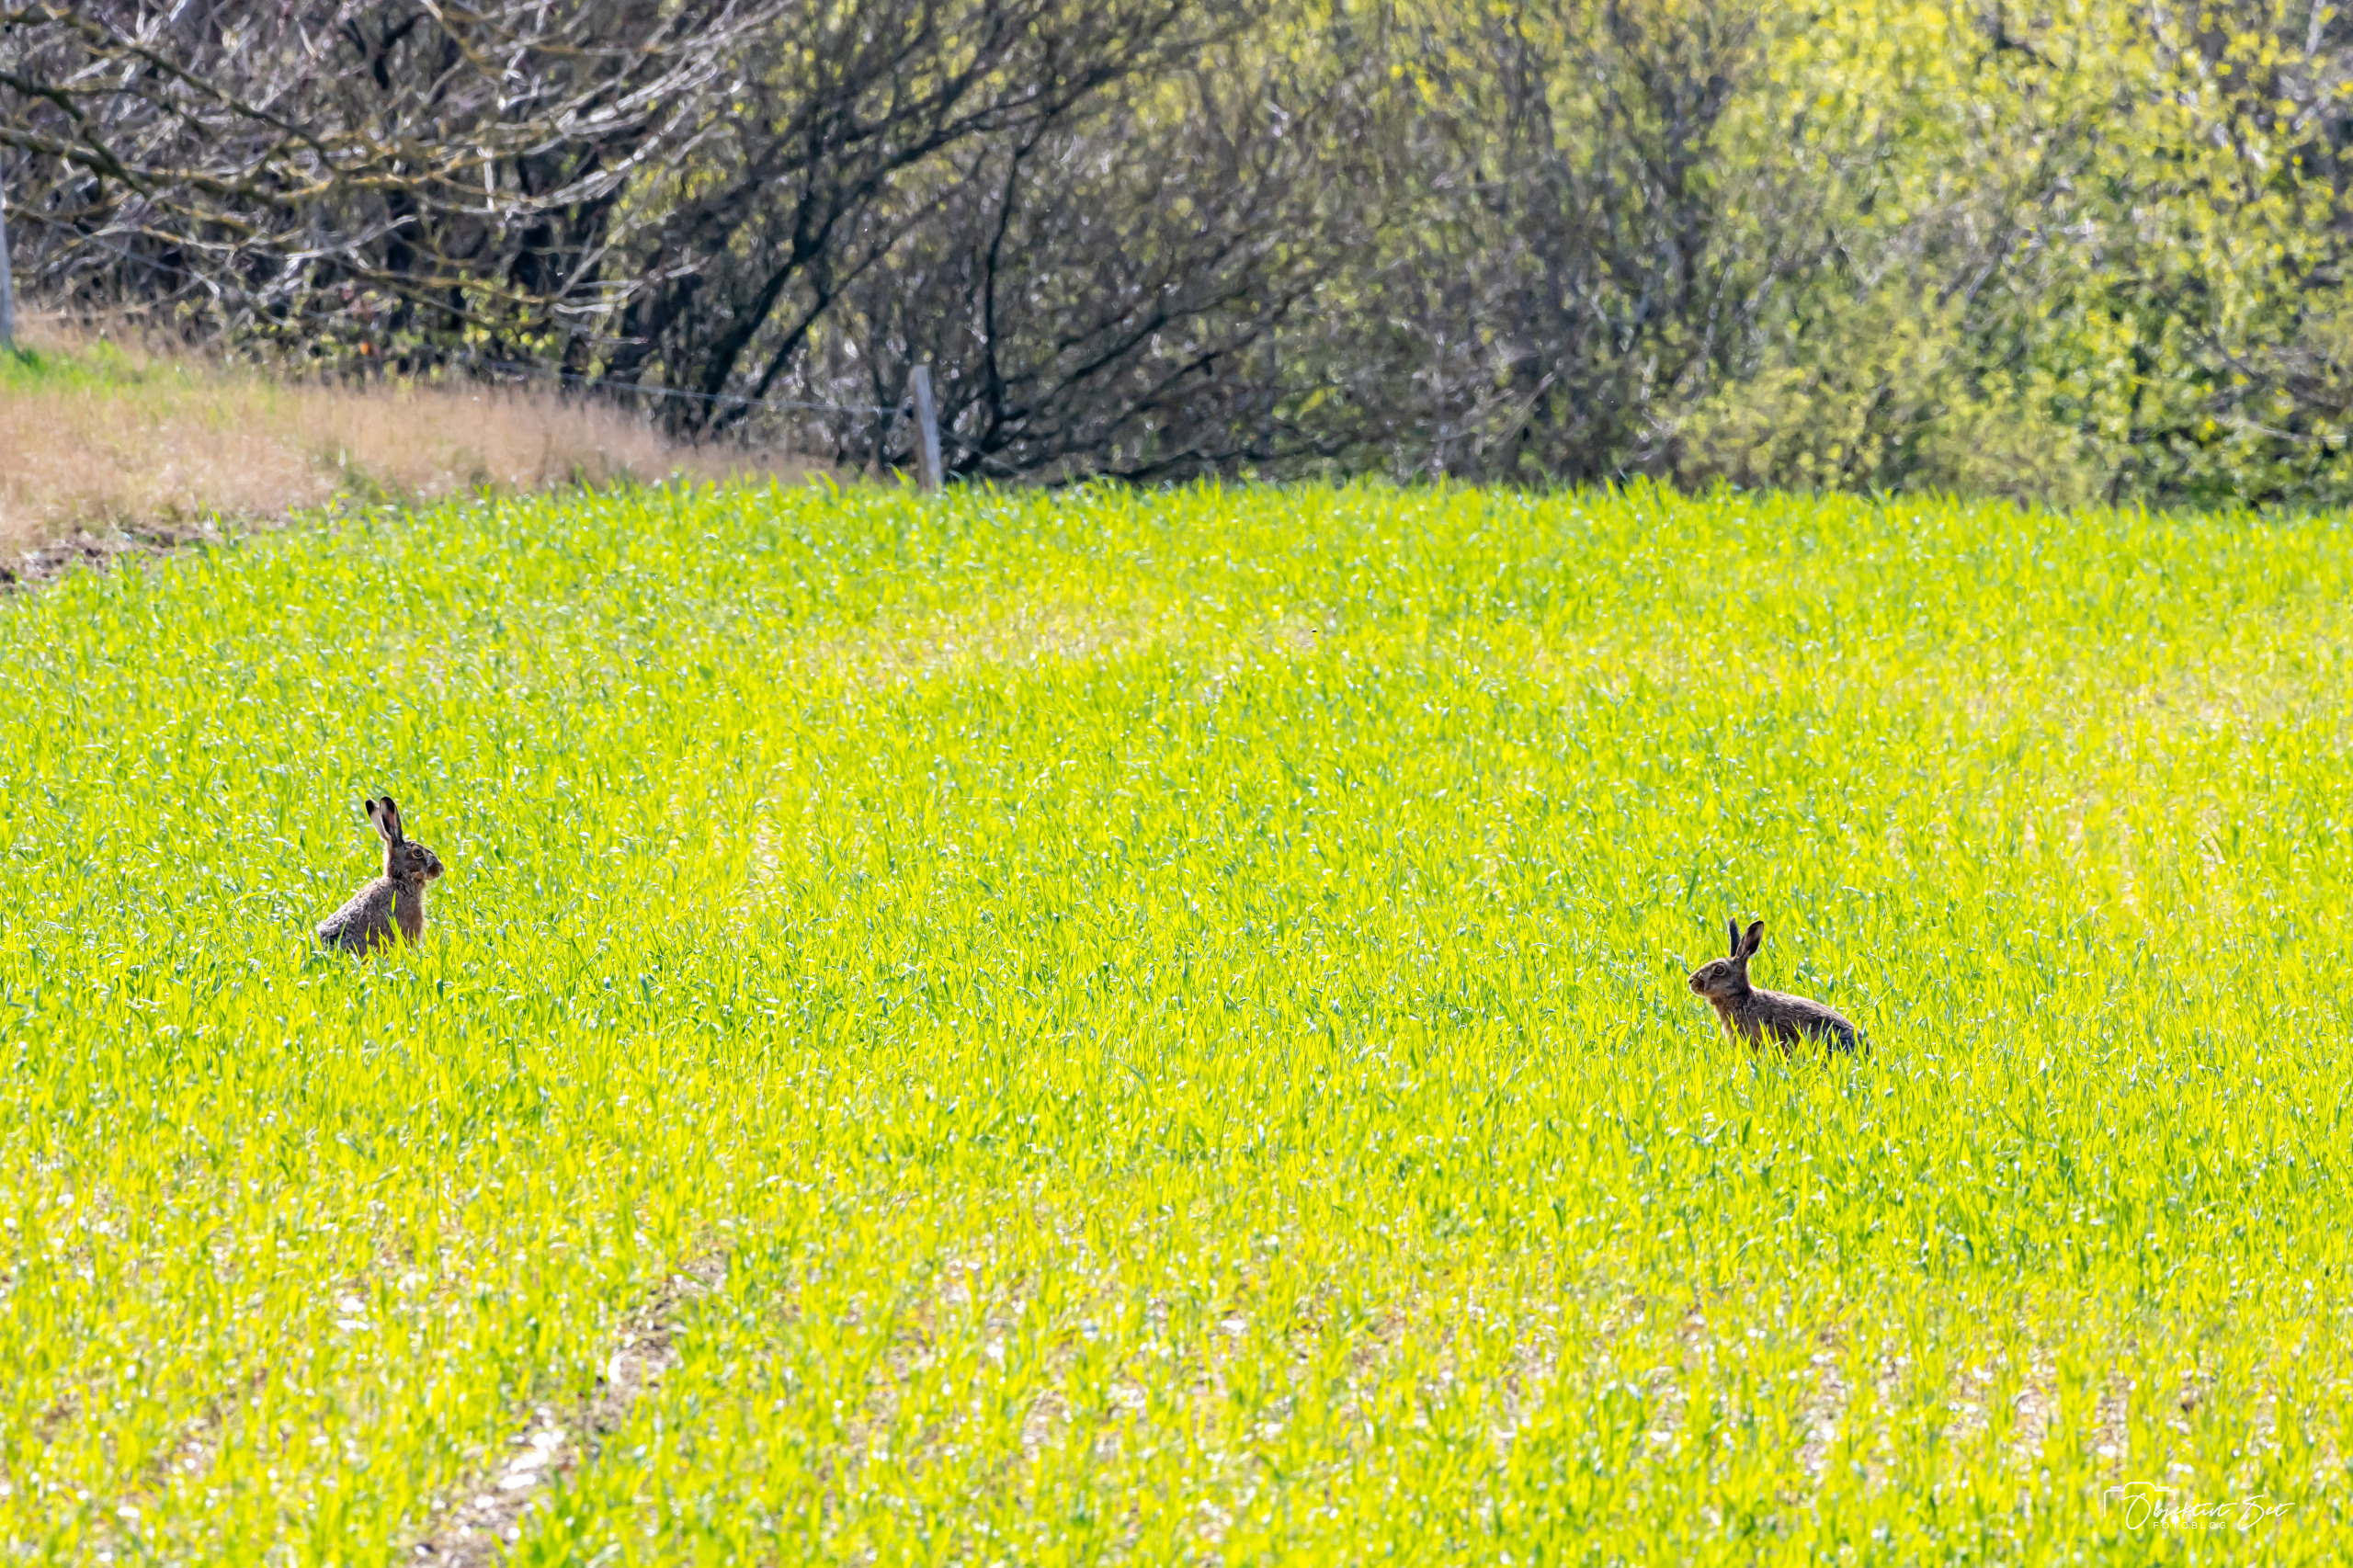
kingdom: Animalia
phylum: Chordata
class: Mammalia
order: Lagomorpha
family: Leporidae
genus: Lepus
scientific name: Lepus europaeus
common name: Hare
